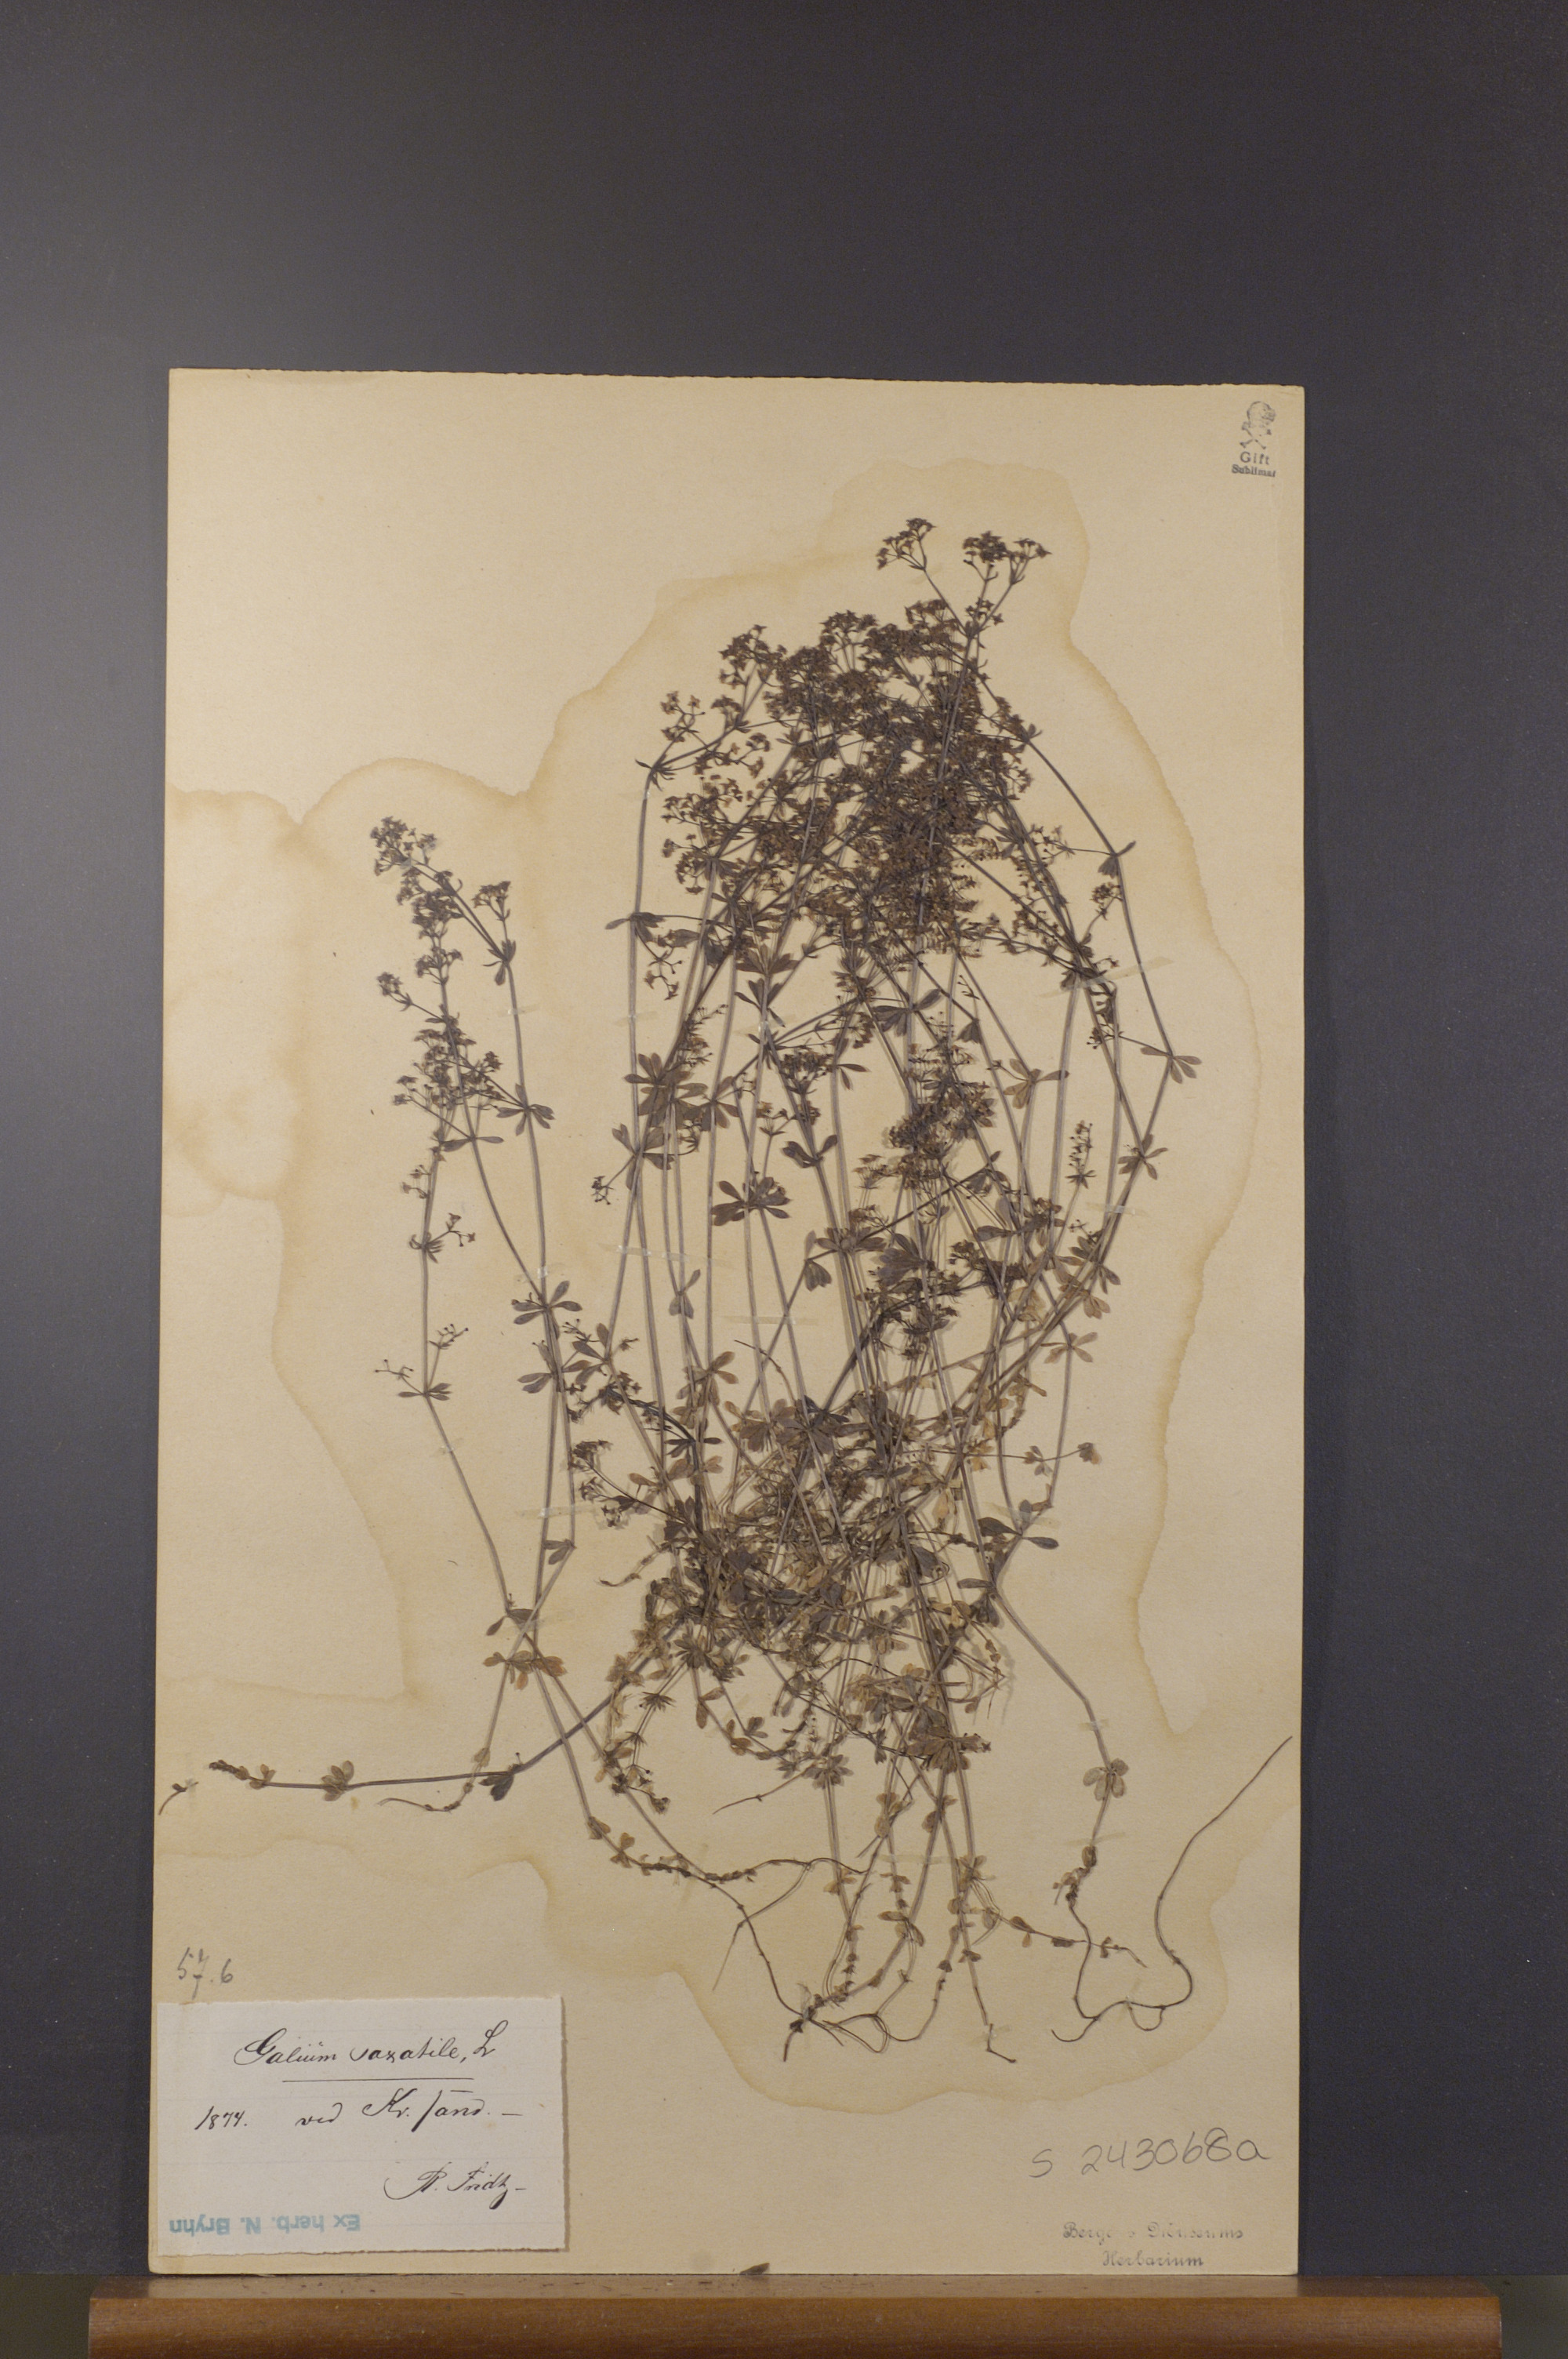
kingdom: Plantae
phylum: Tracheophyta
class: Magnoliopsida
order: Gentianales
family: Rubiaceae
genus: Galium
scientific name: Galium saxatile
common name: Heath bedstraw
